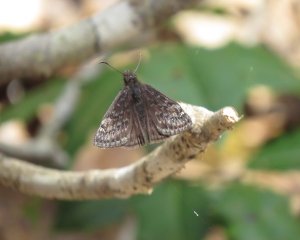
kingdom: Animalia
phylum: Arthropoda
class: Insecta
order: Lepidoptera
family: Hesperiidae
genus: Gesta
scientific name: Gesta
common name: Juvenal's Duskywing
